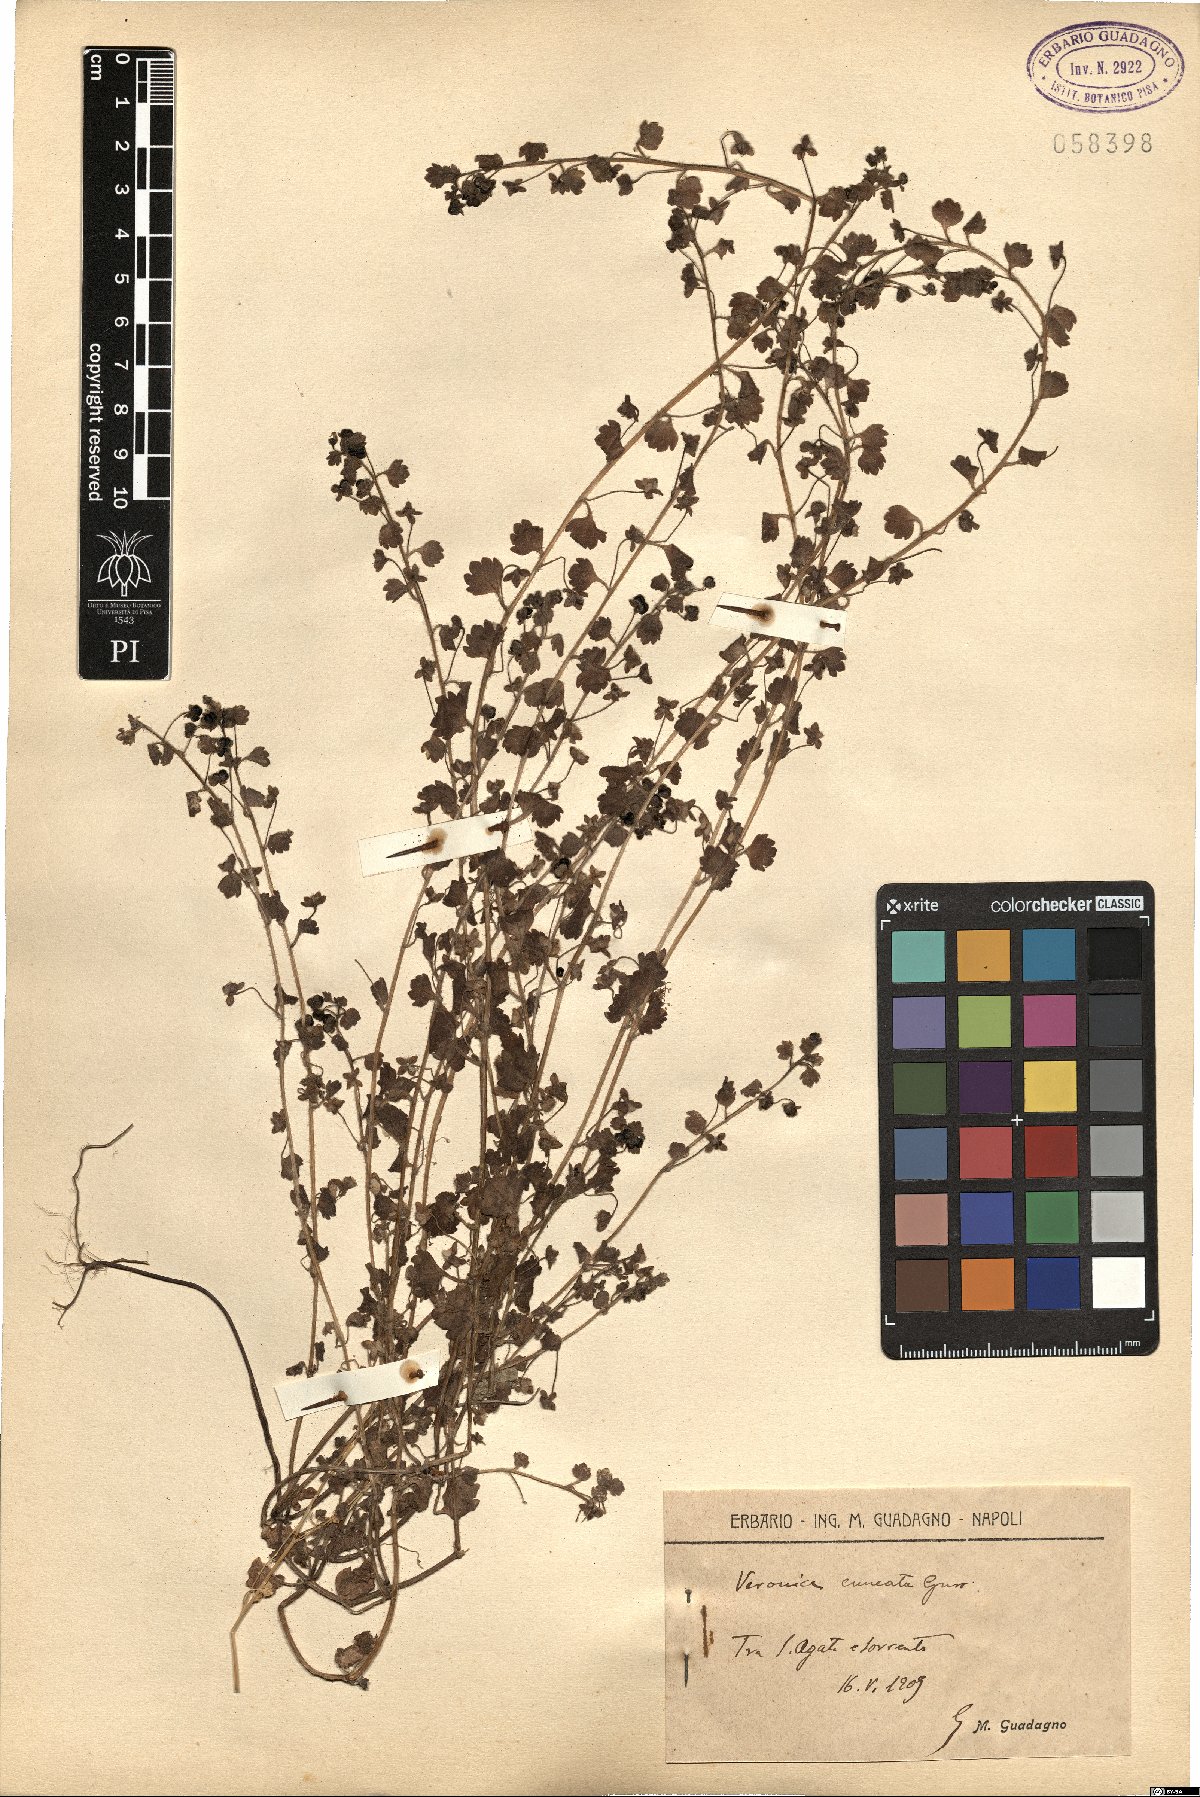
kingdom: Plantae
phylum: Tracheophyta
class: Magnoliopsida
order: Lamiales
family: Plantaginaceae
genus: Veronica
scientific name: Veronica cymbalaria
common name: Pale speedwell
